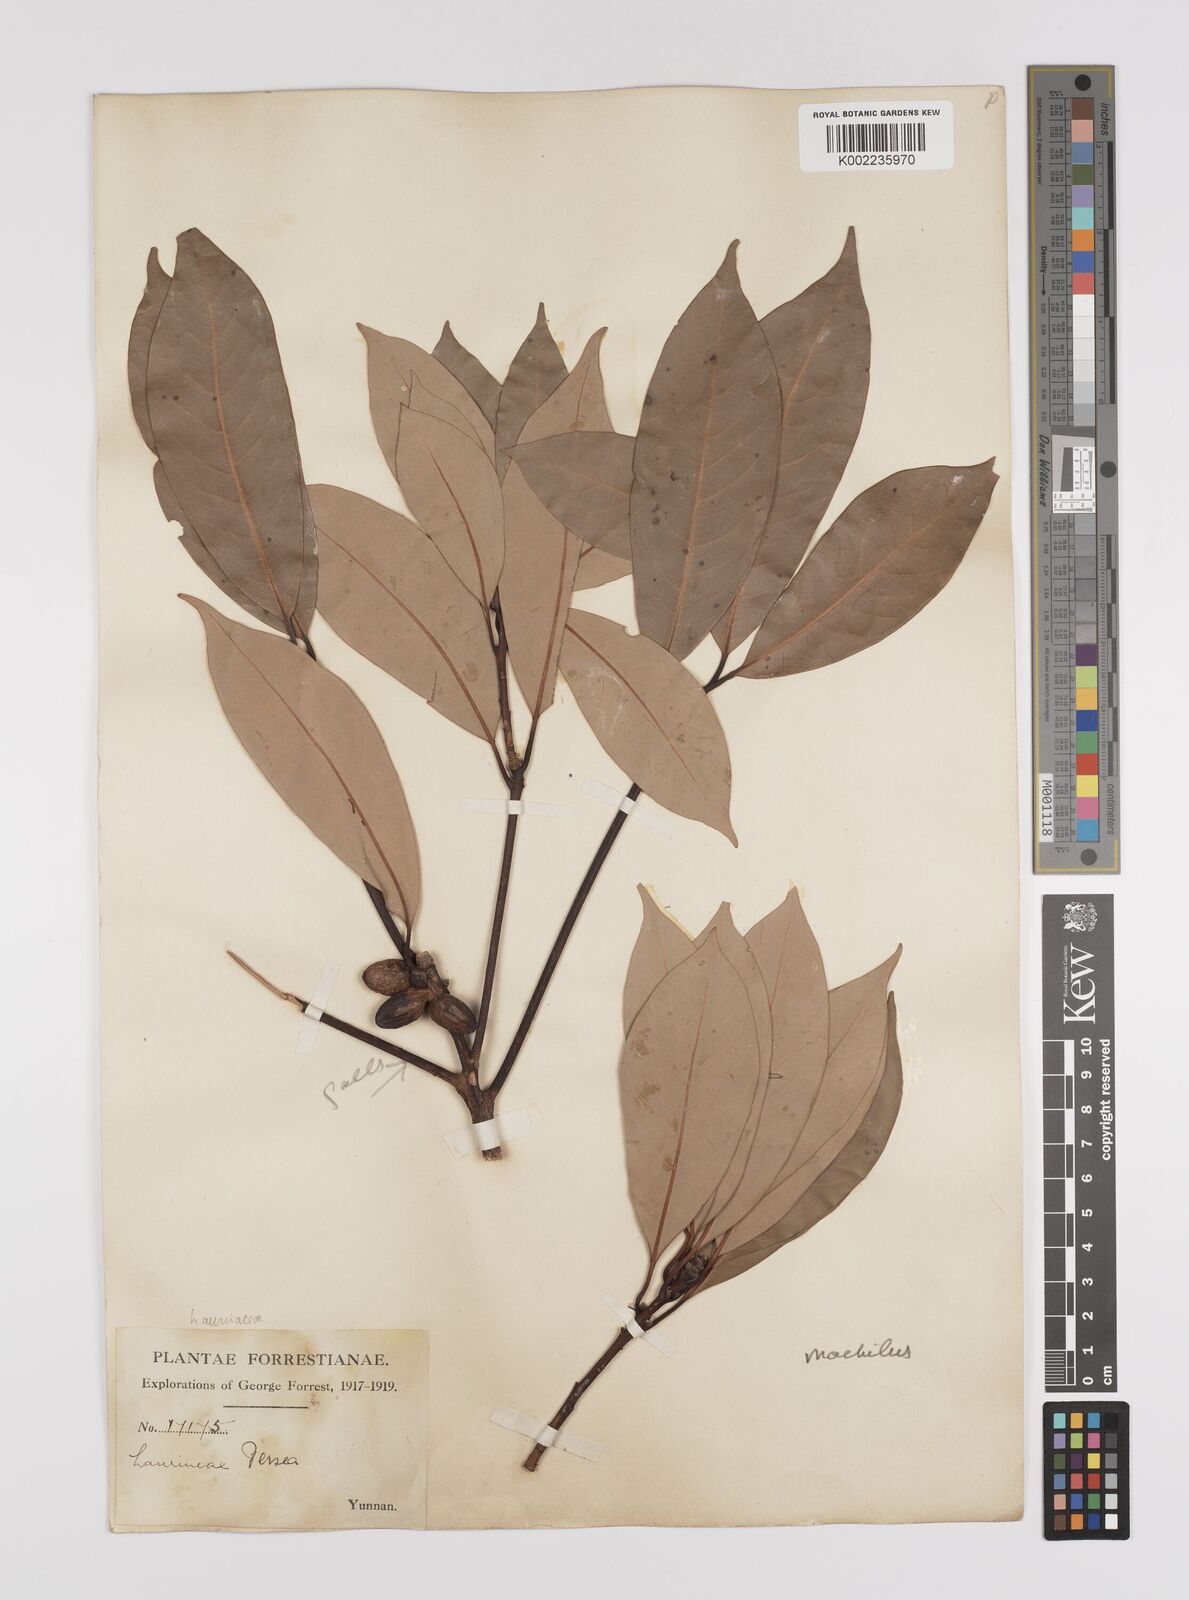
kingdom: Plantae
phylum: Tracheophyta
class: Magnoliopsida
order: Laurales
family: Lauraceae
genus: Persea
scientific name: Persea
